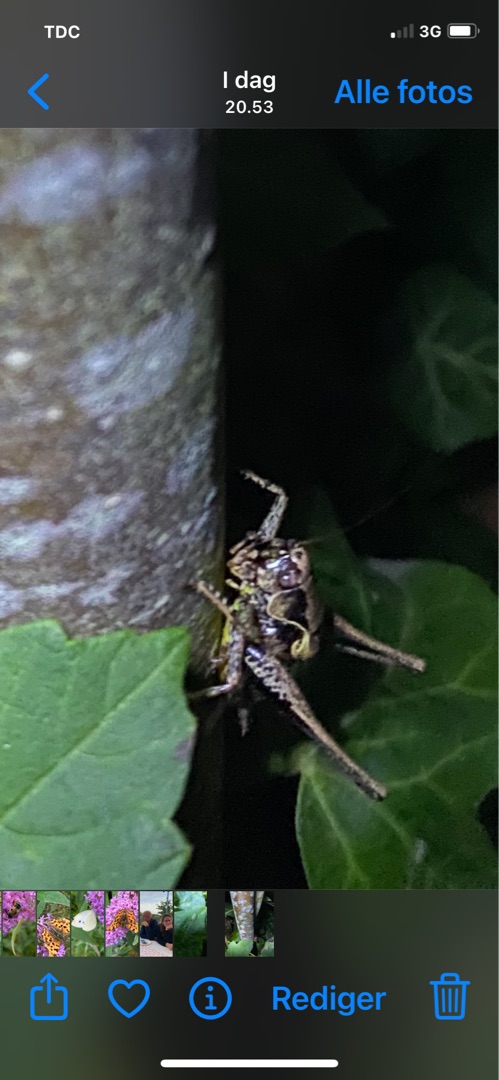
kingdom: Animalia
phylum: Arthropoda
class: Insecta
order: Orthoptera
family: Tettigoniidae
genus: Pholidoptera
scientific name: Pholidoptera griseoaptera
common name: Buskgræshoppe
